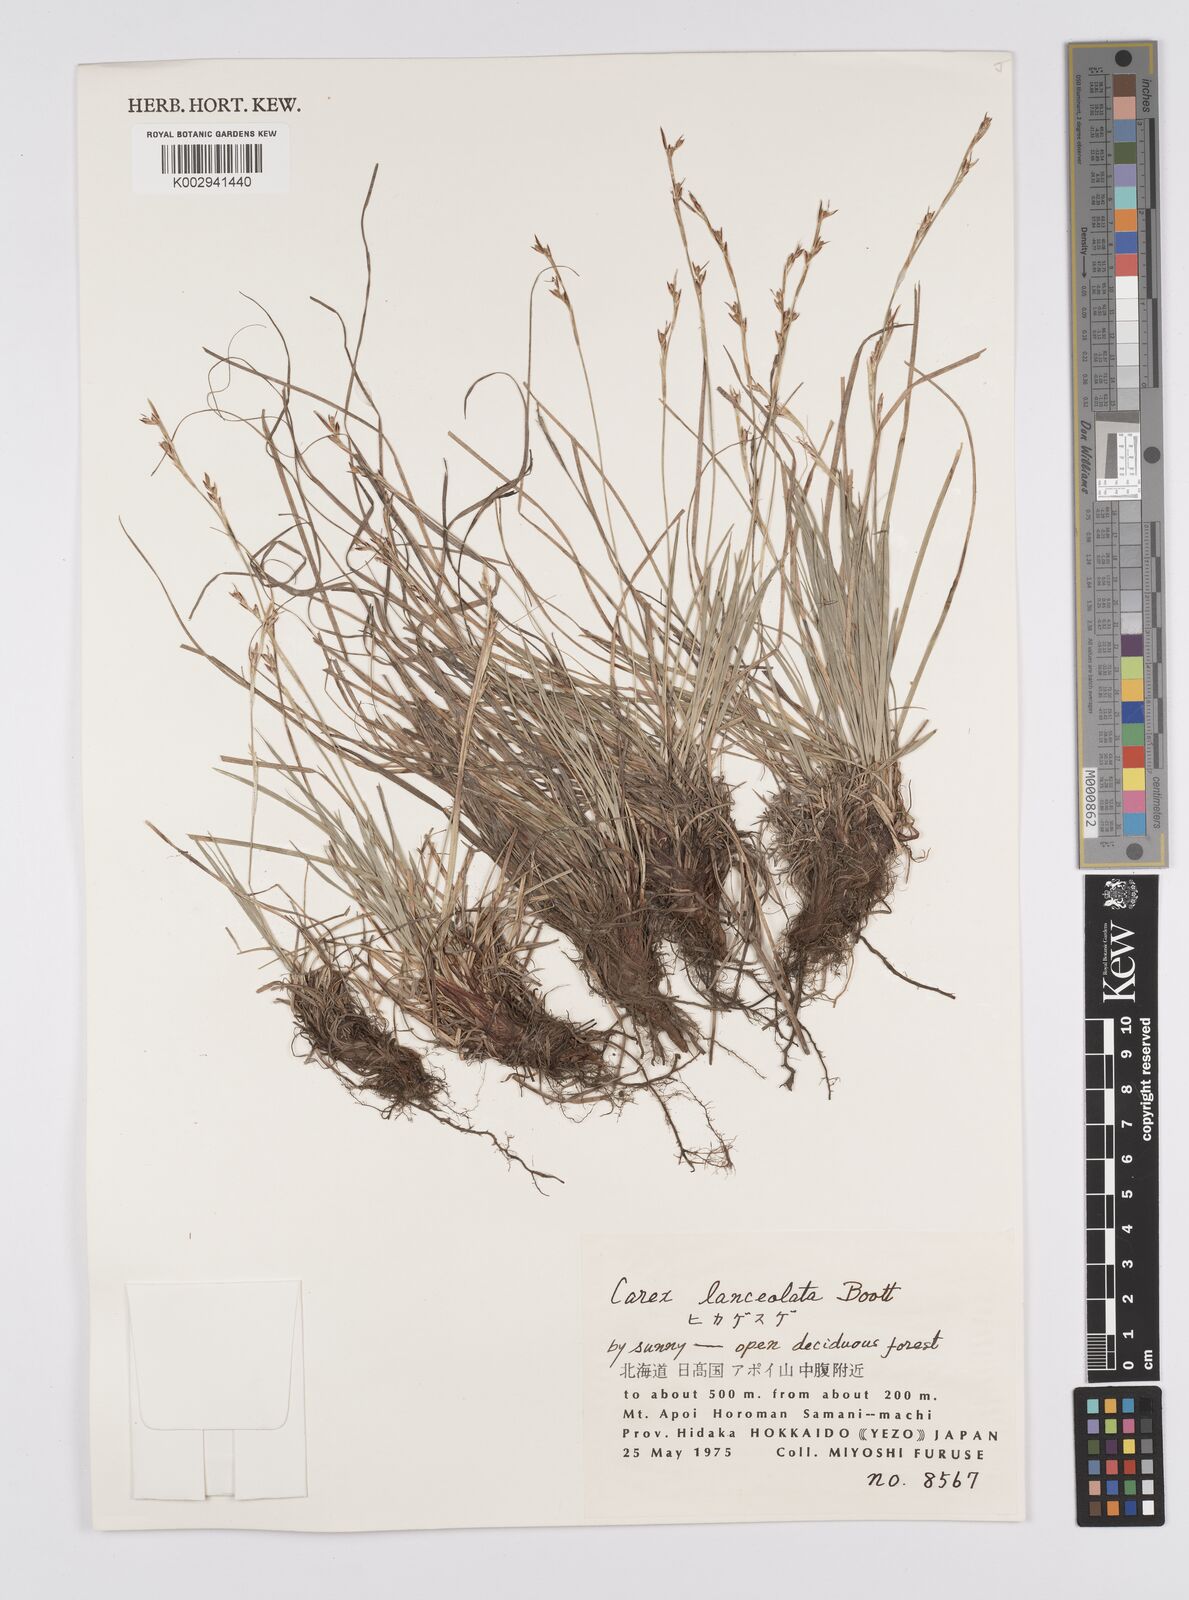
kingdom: Plantae
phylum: Tracheophyta
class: Liliopsida
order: Poales
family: Cyperaceae
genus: Carex
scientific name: Carex lanceolata
